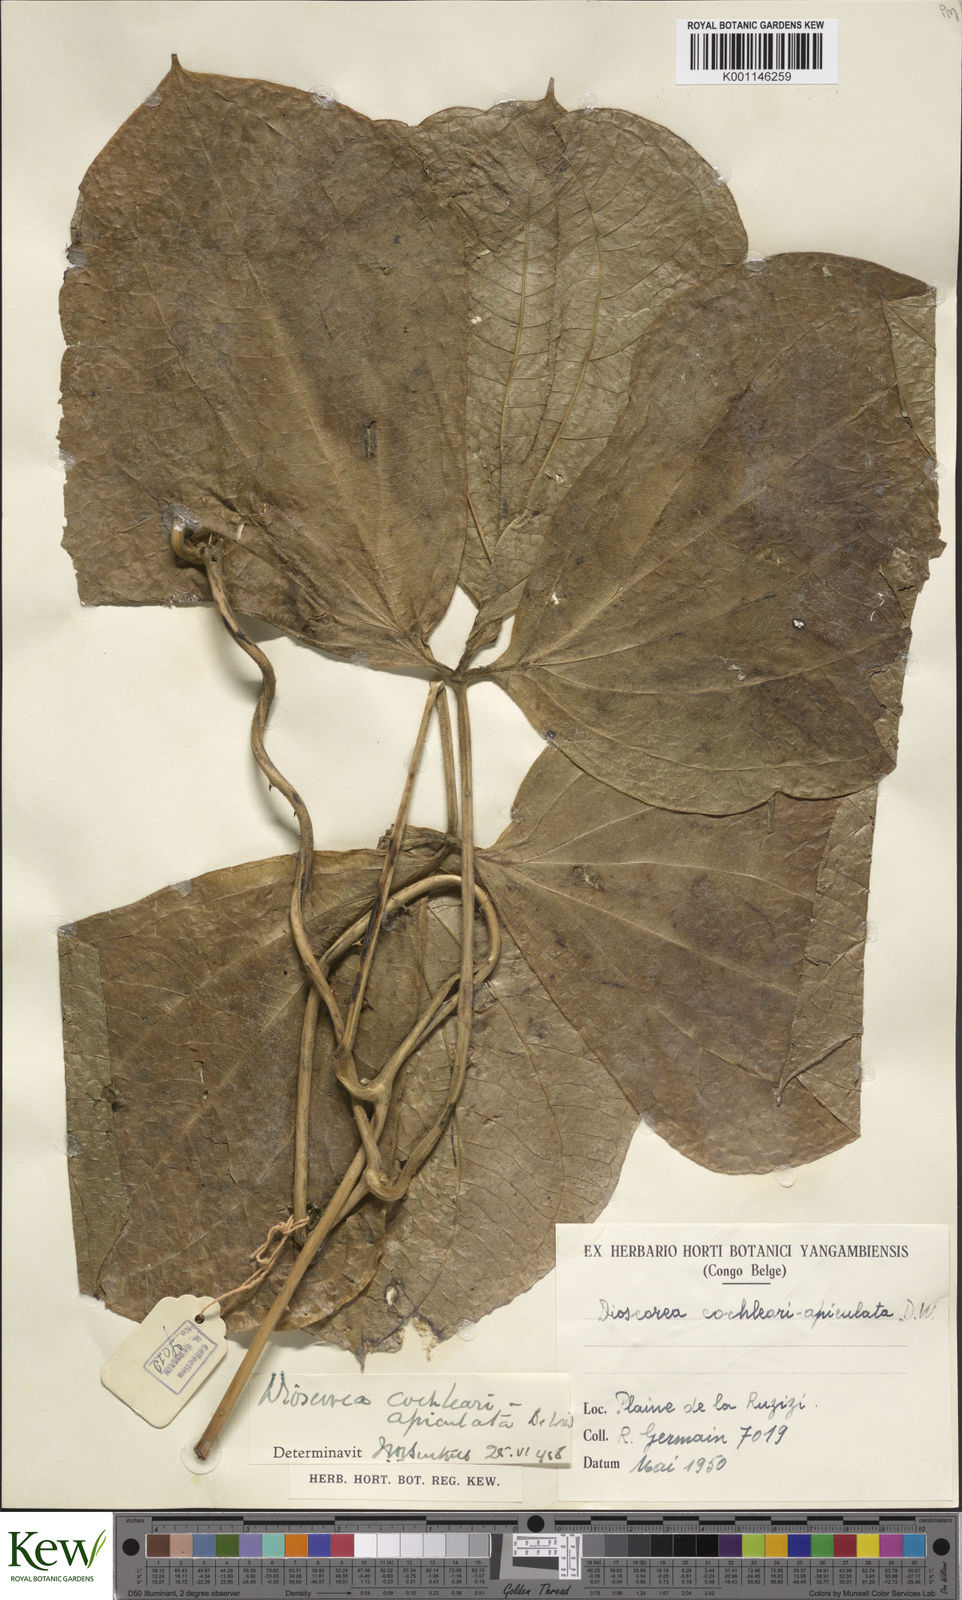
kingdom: Plantae
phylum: Tracheophyta
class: Liliopsida
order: Dioscoreales
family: Dioscoreaceae
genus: Dioscorea
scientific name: Dioscorea cochleariapiculata
